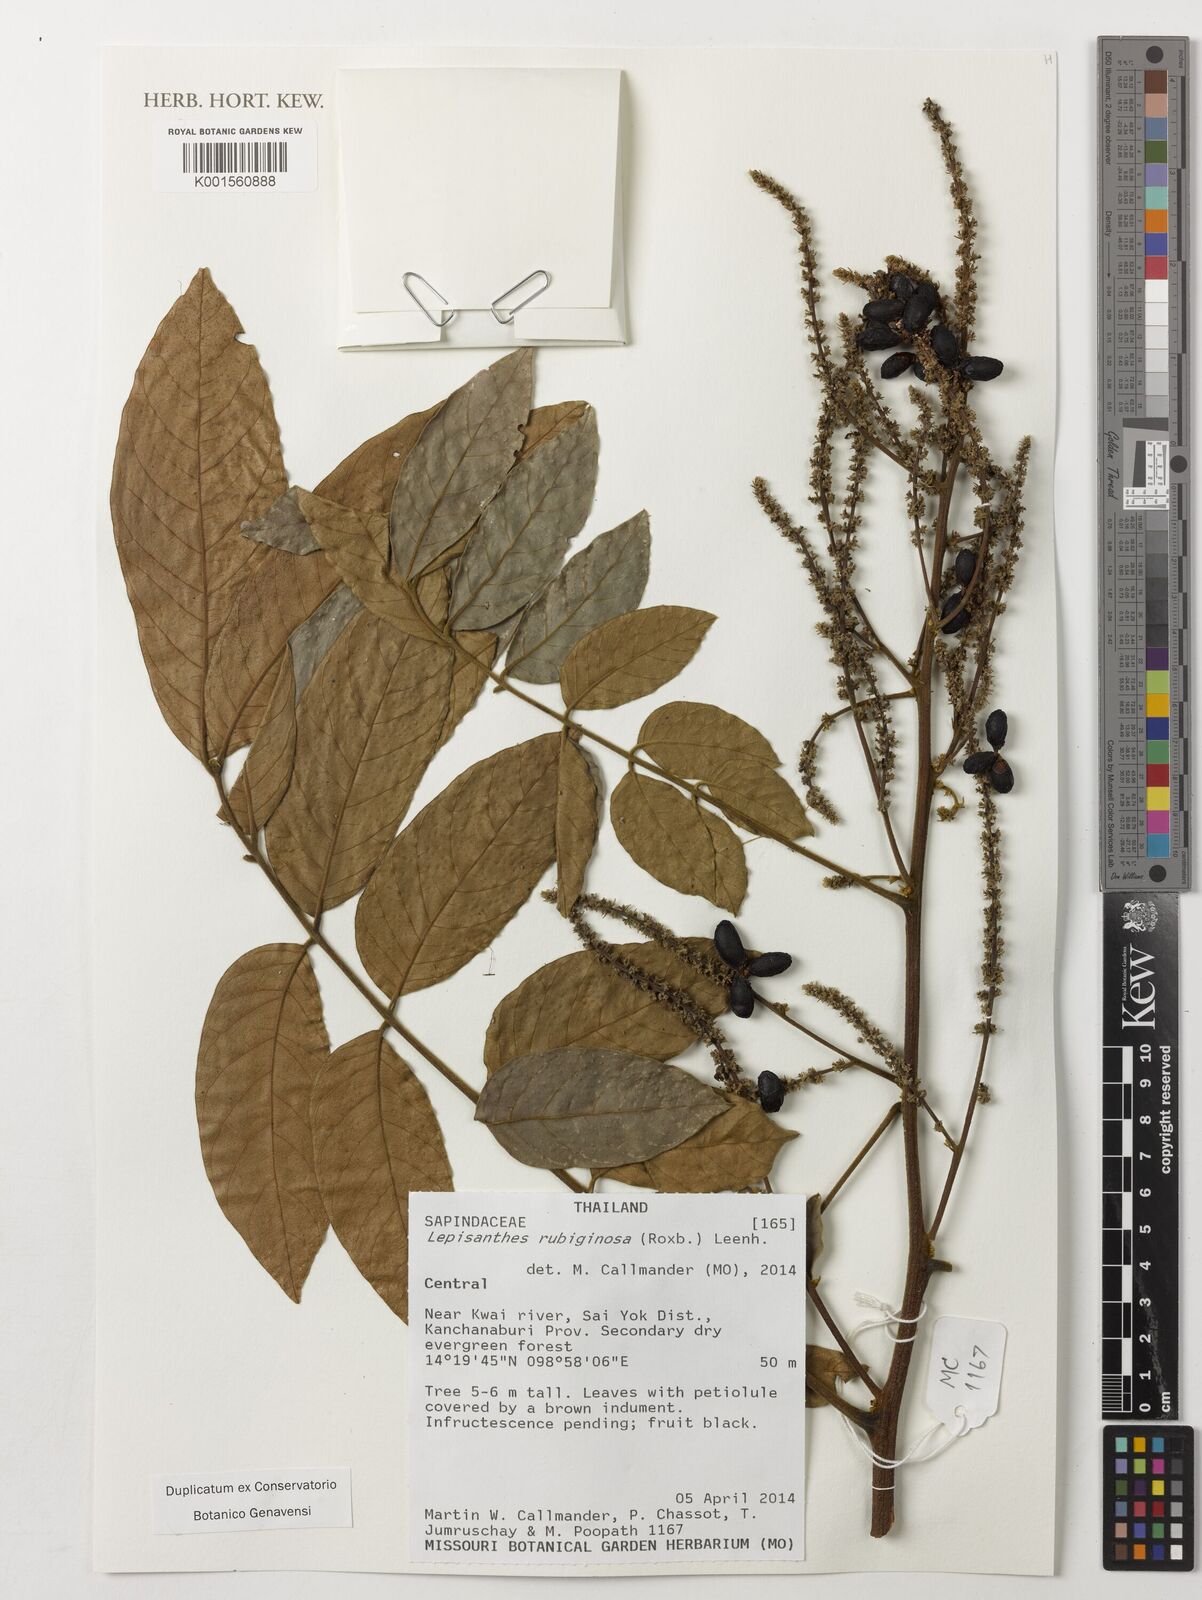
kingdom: Plantae
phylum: Tracheophyta
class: Magnoliopsida
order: Sapindales
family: Sapindaceae
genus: Lepisanthes
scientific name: Lepisanthes rubiginosa
